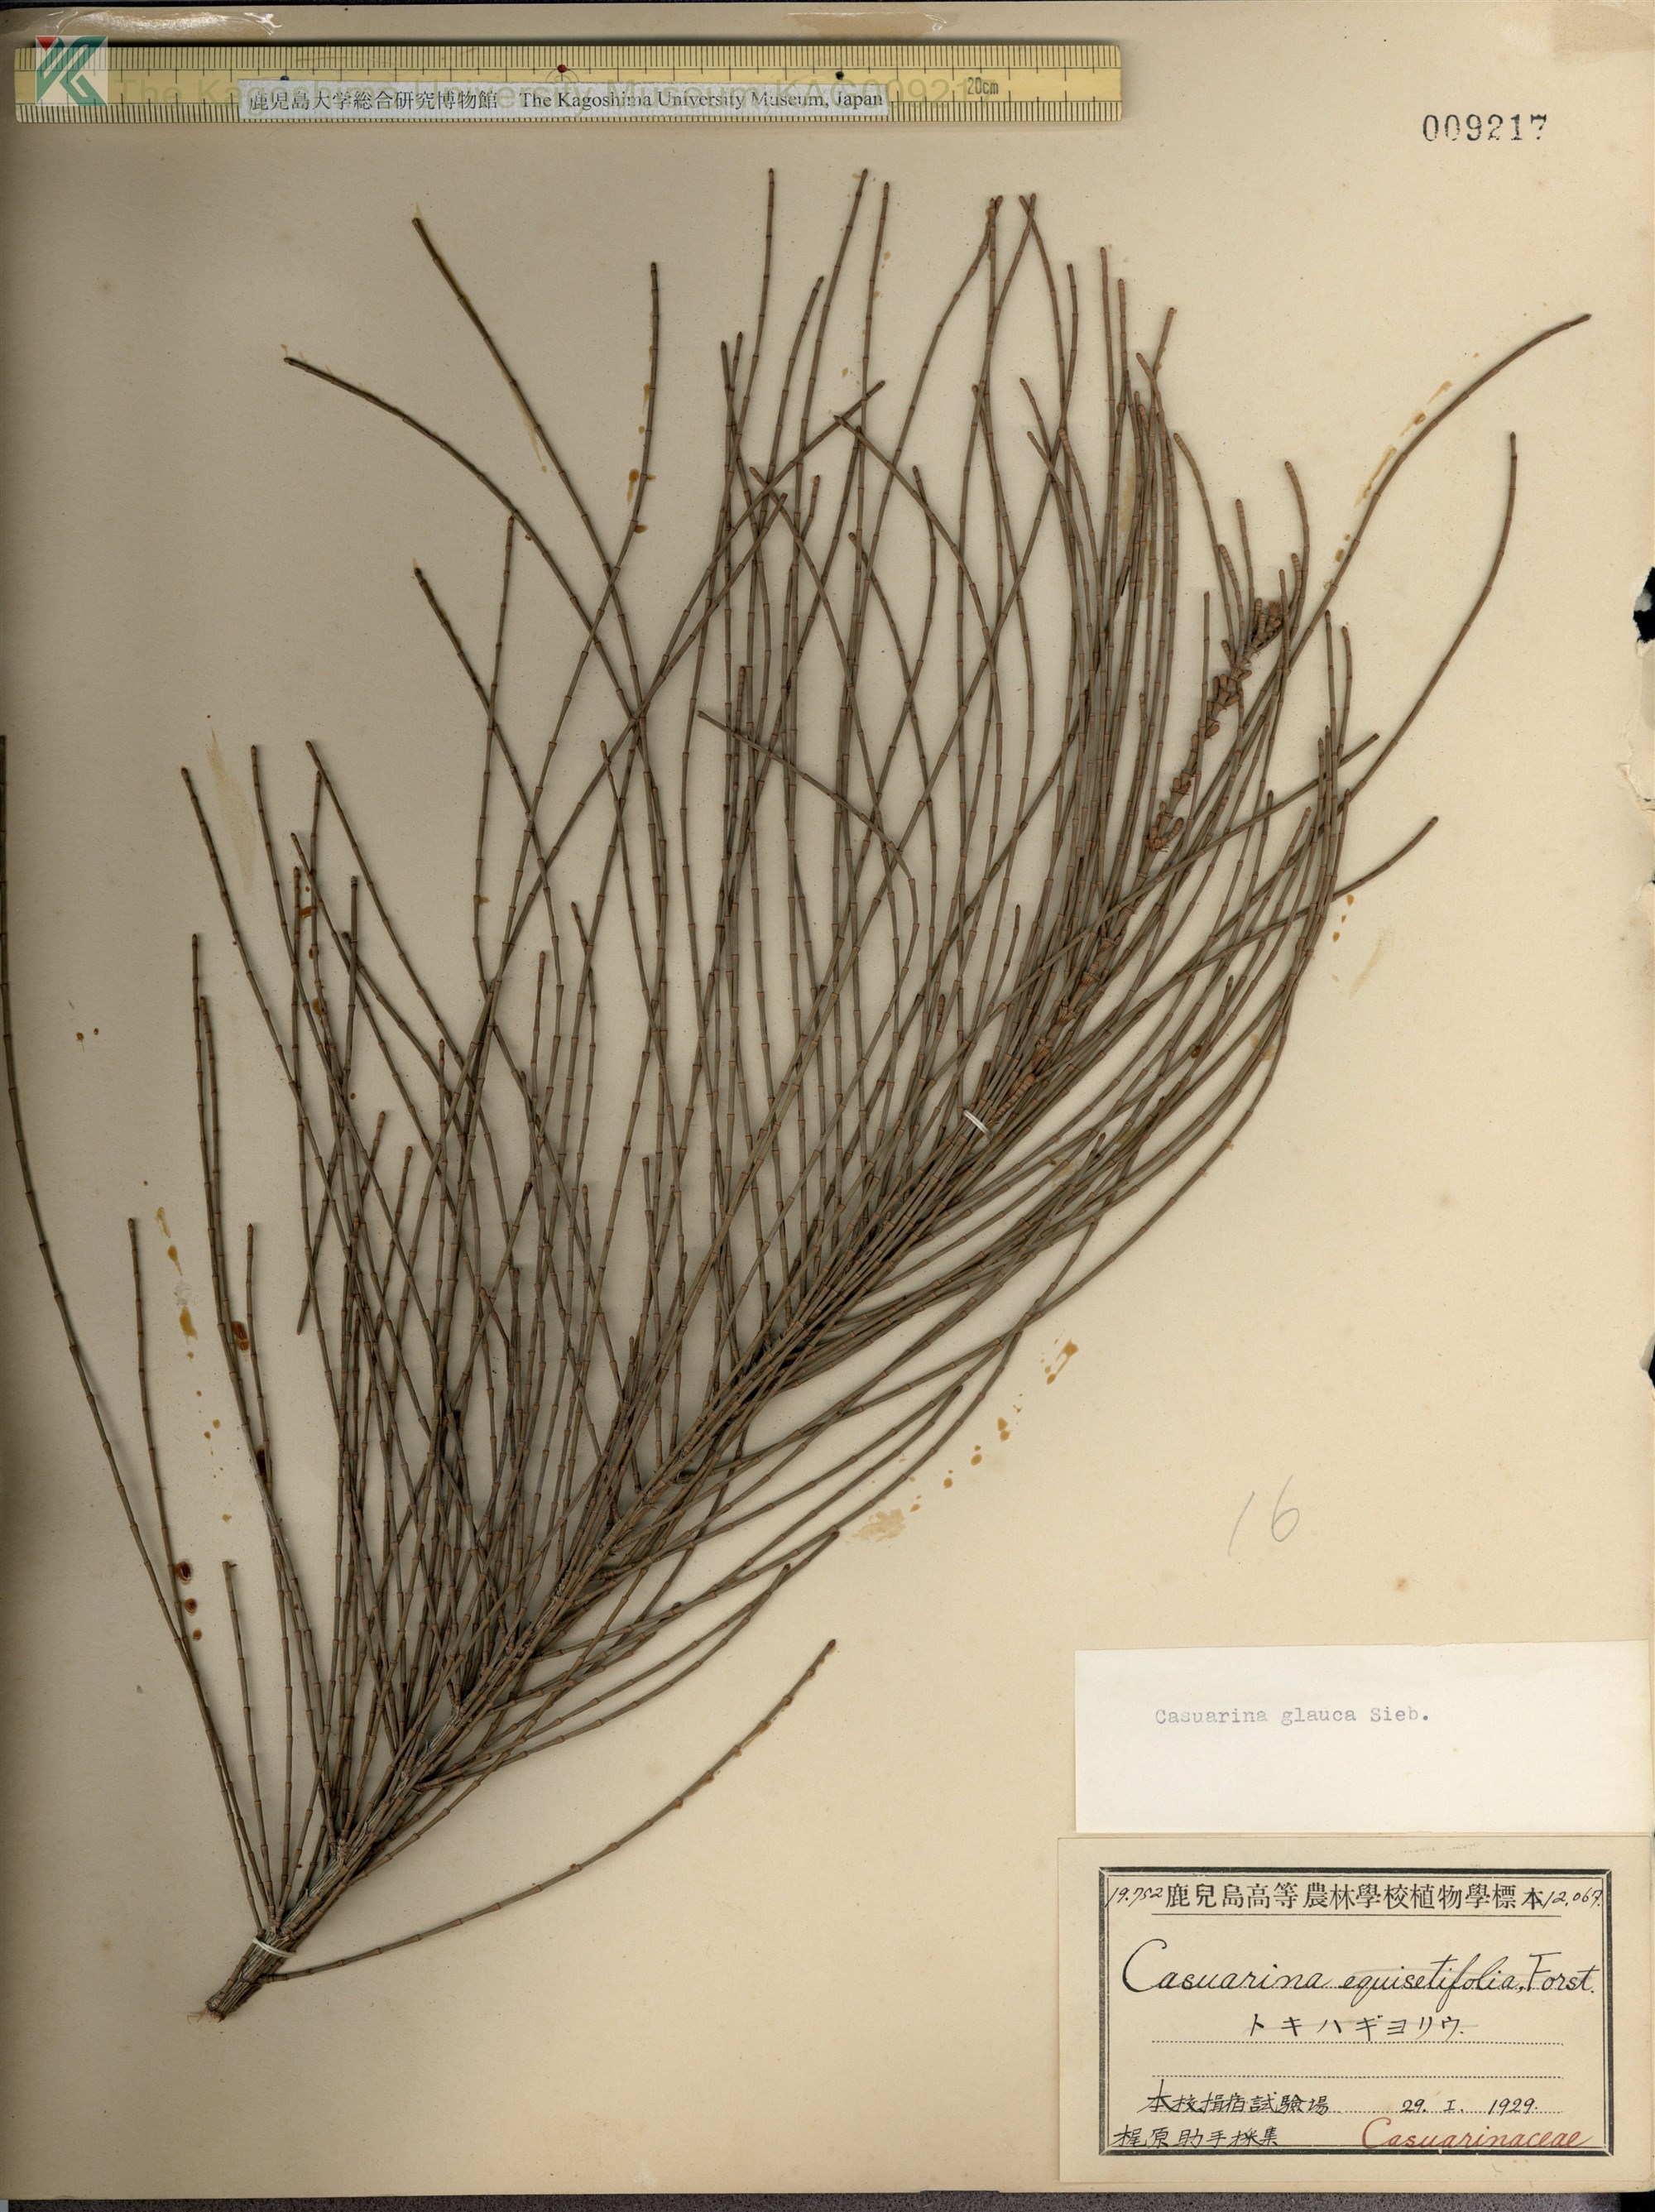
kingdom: Plantae
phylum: Tracheophyta
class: Magnoliopsida
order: Fagales
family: Casuarinaceae
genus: Casuarina
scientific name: Casuarina glauca
